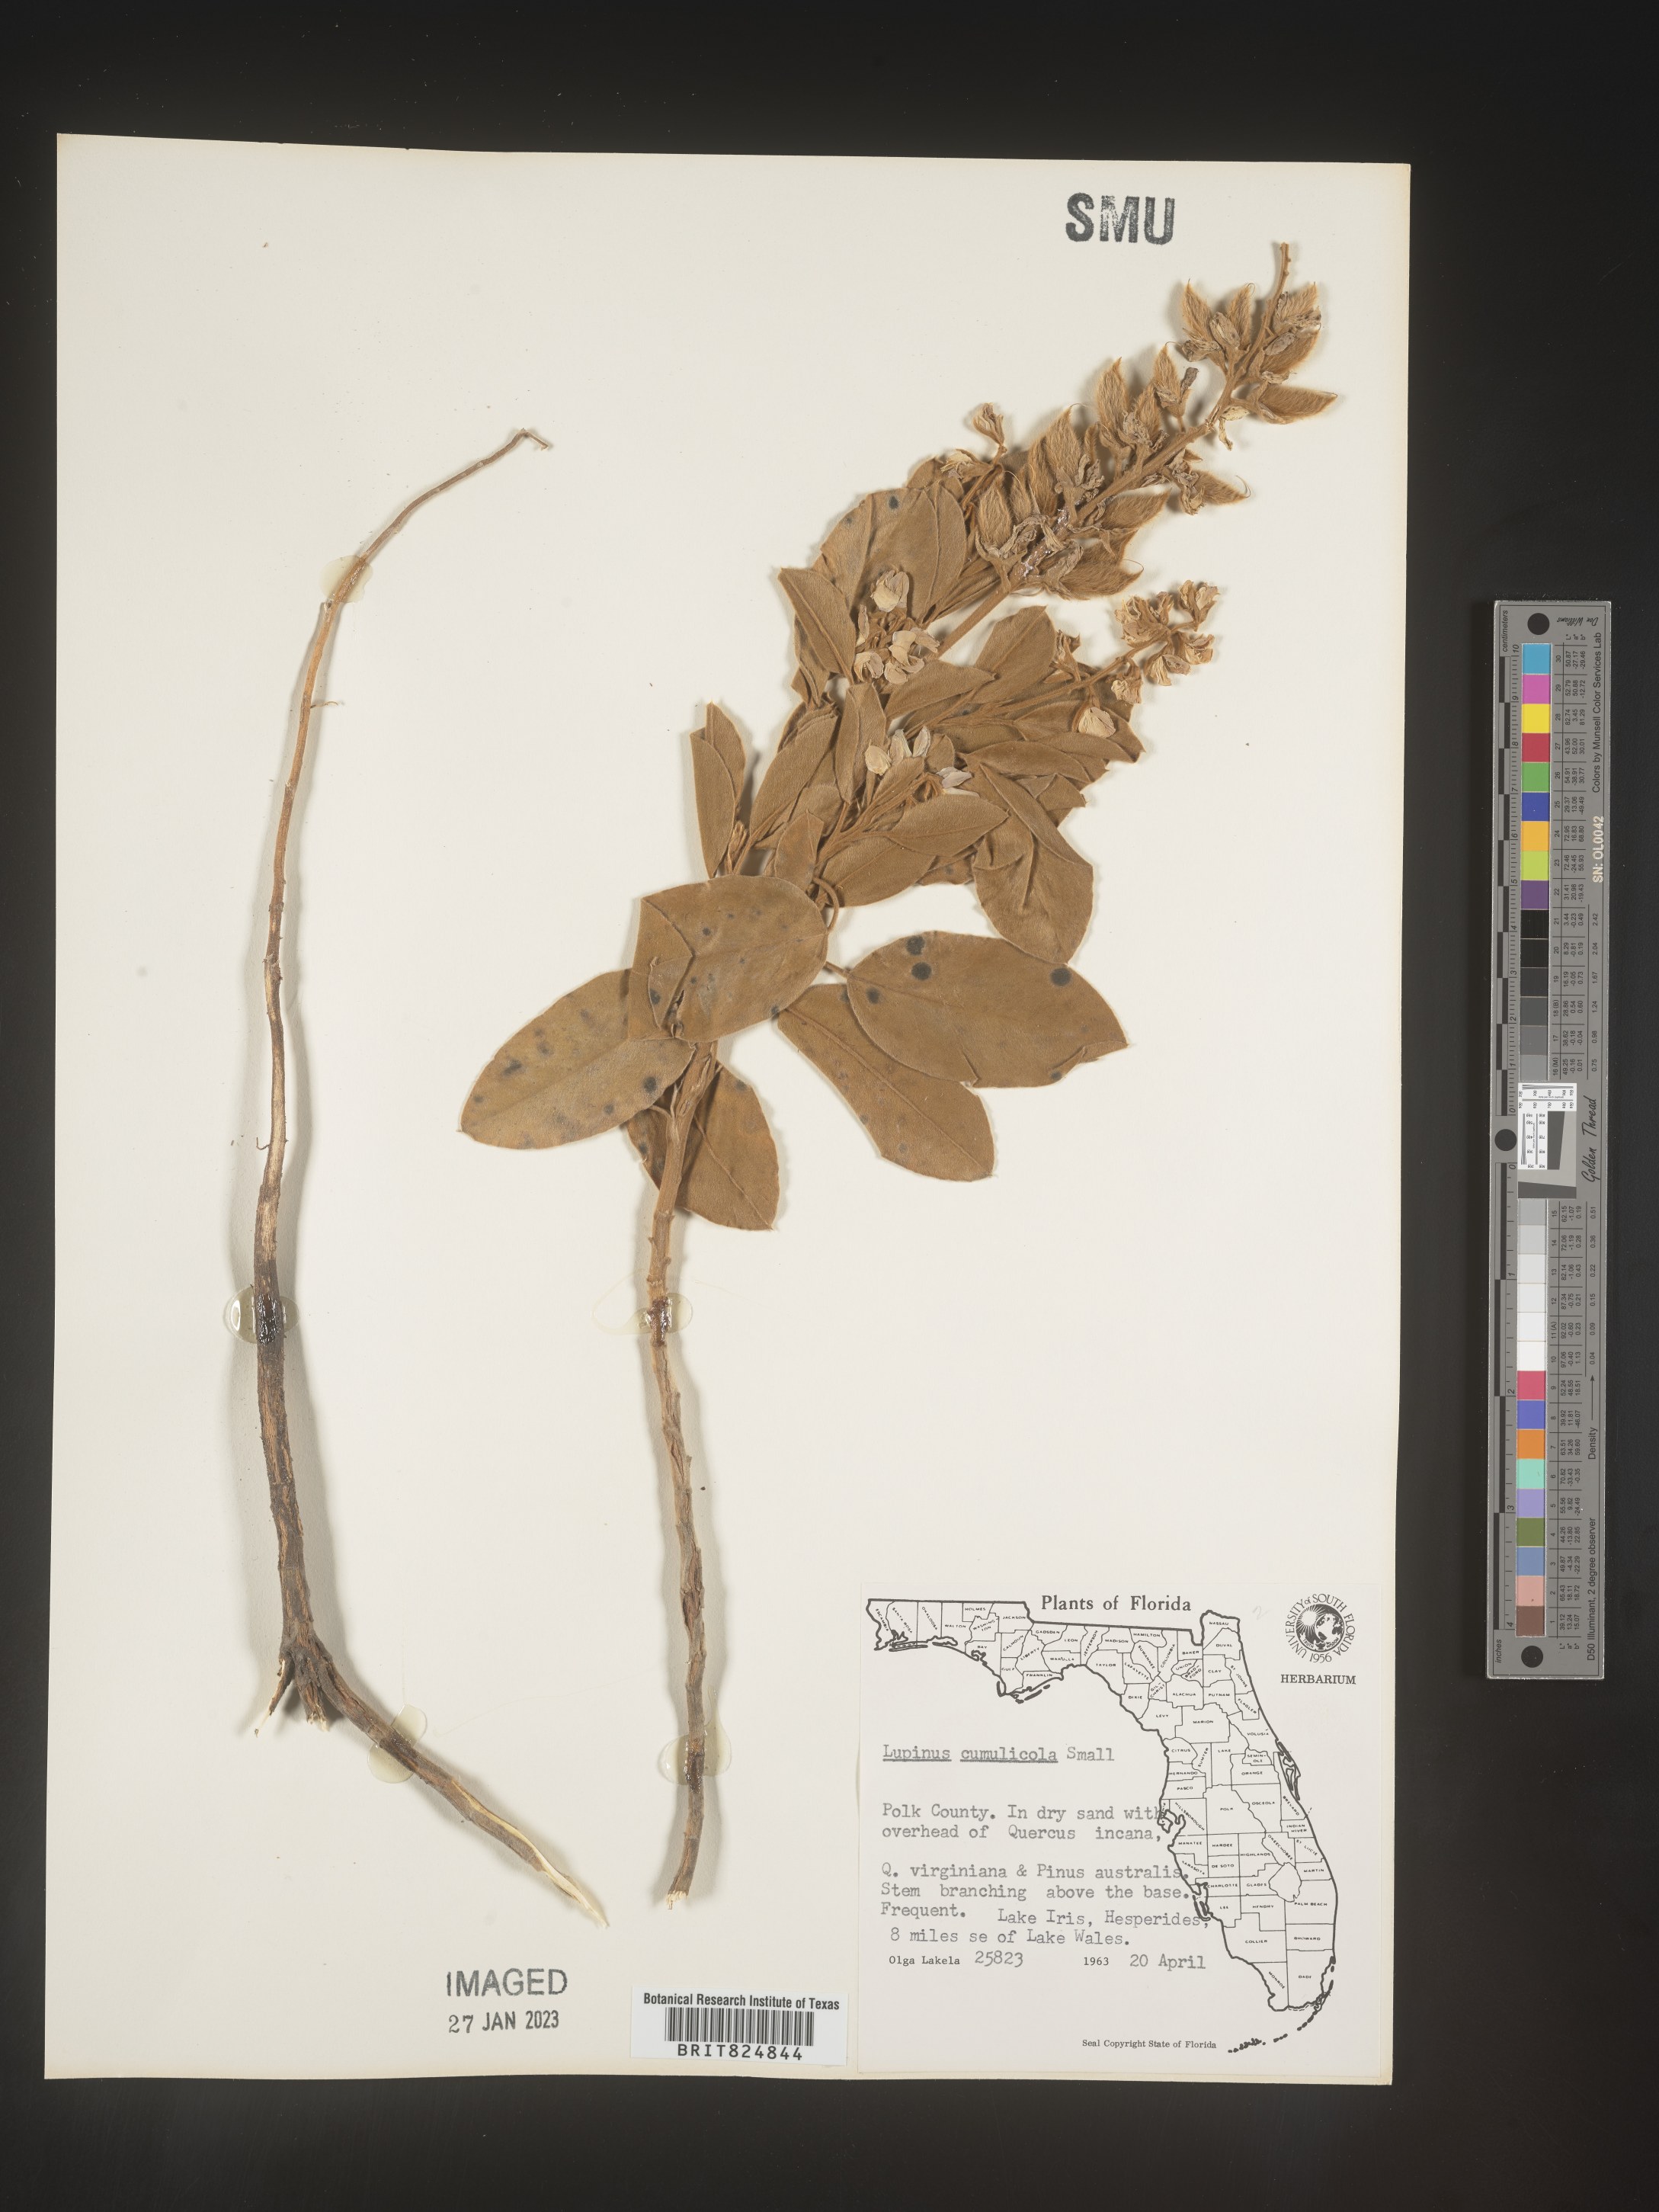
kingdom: Plantae
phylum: Tracheophyta
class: Magnoliopsida
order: Fabales
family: Fabaceae
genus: Lupinus
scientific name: Lupinus
